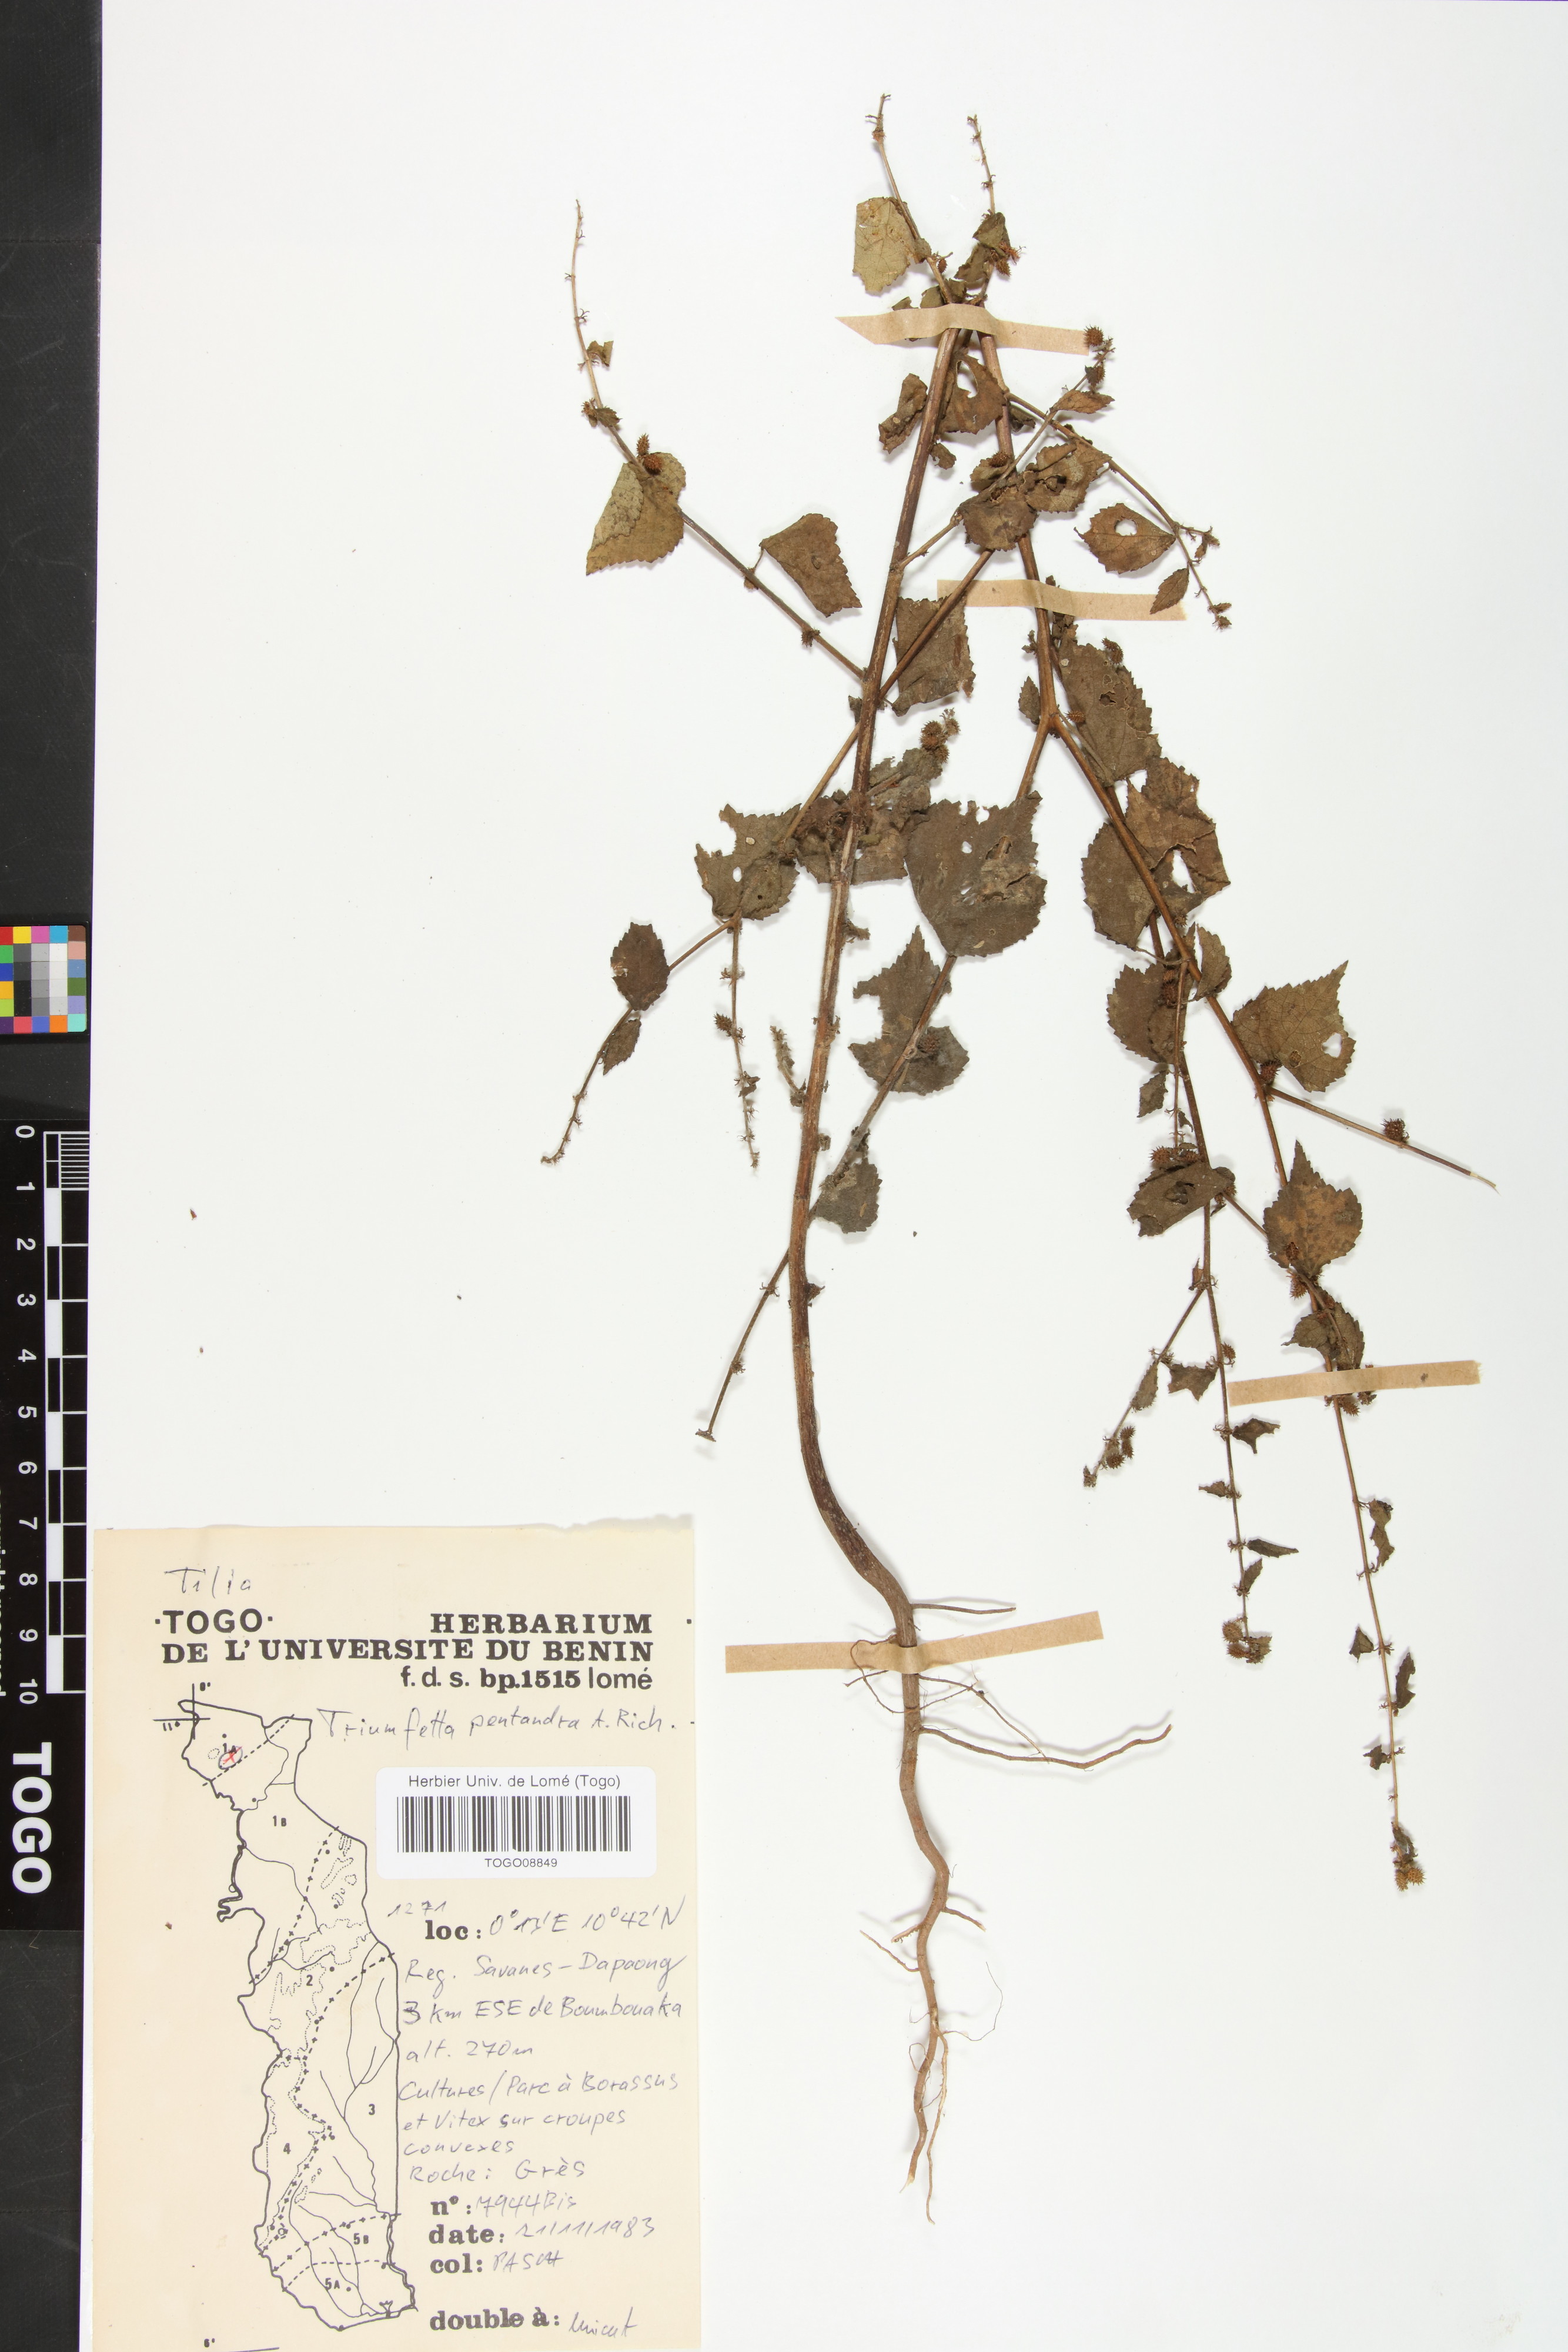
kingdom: Plantae
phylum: Tracheophyta
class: Magnoliopsida
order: Malvales
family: Malvaceae
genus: Triumfetta
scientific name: Triumfetta pentandra
